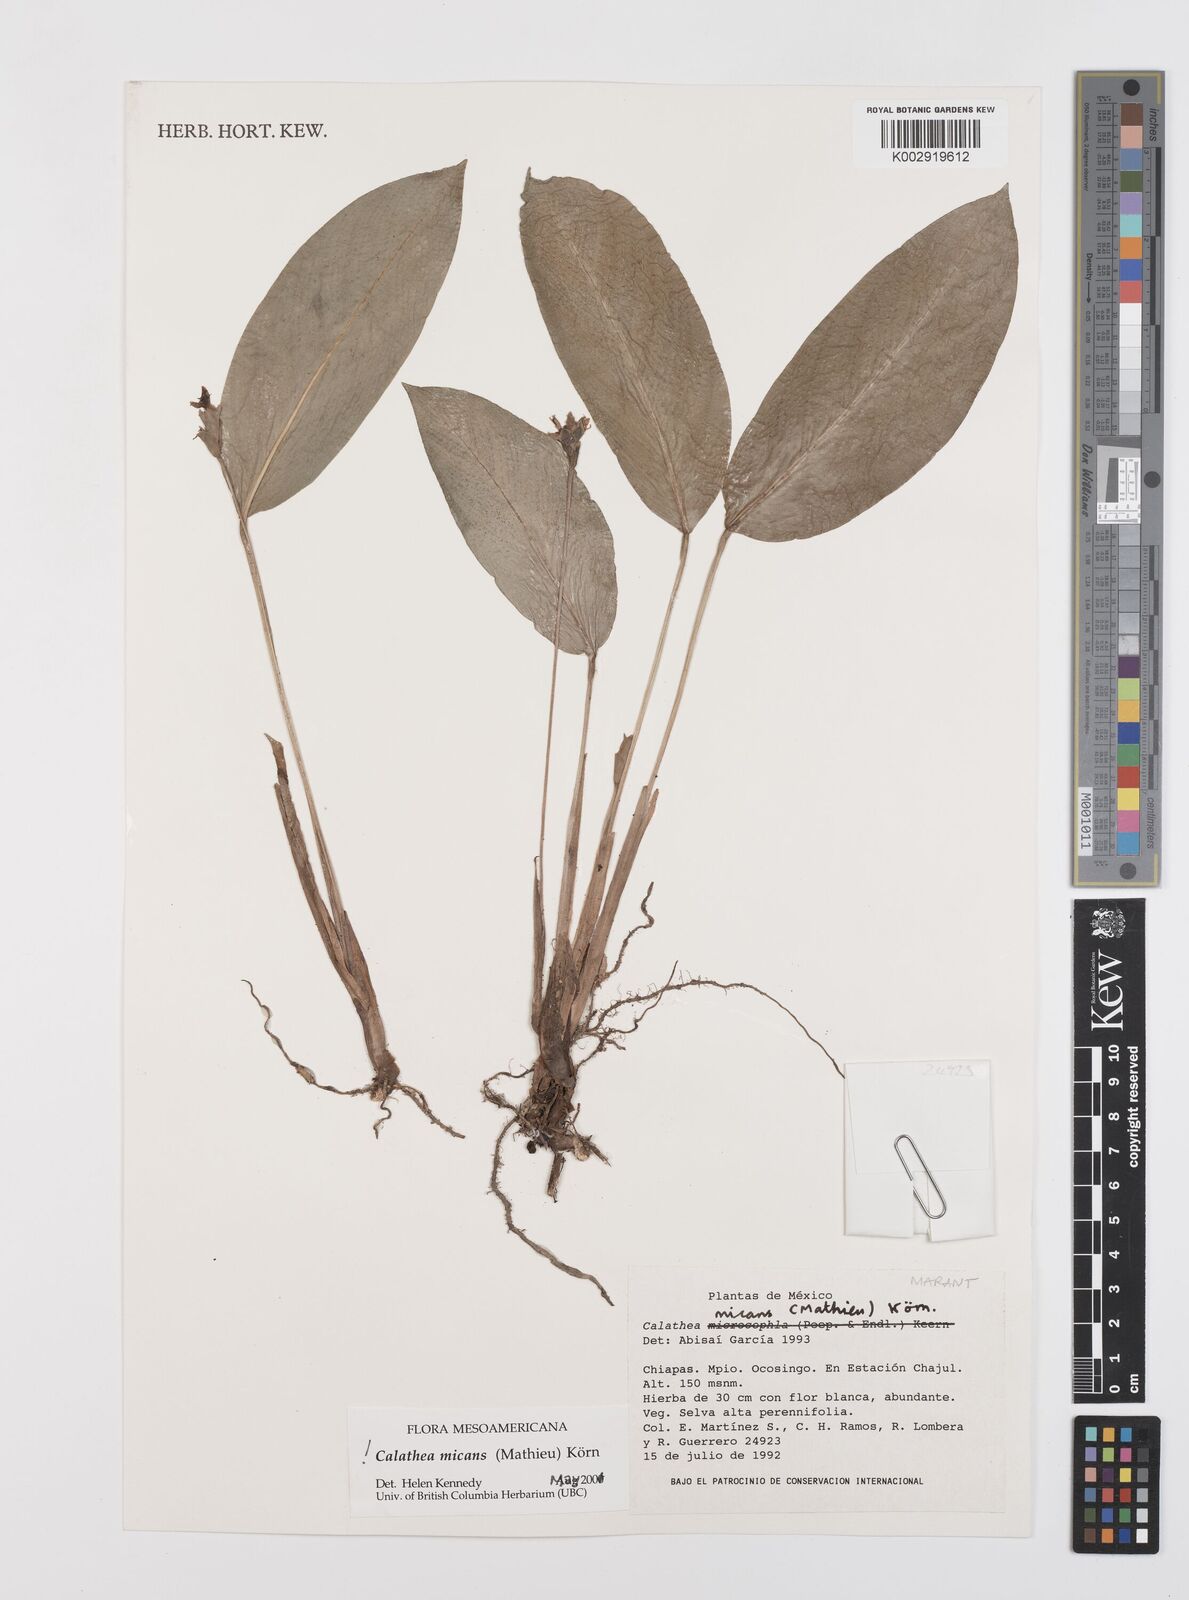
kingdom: Plantae
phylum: Tracheophyta
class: Liliopsida
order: Zingiberales
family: Marantaceae
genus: Goeppertia
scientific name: Goeppertia micans
